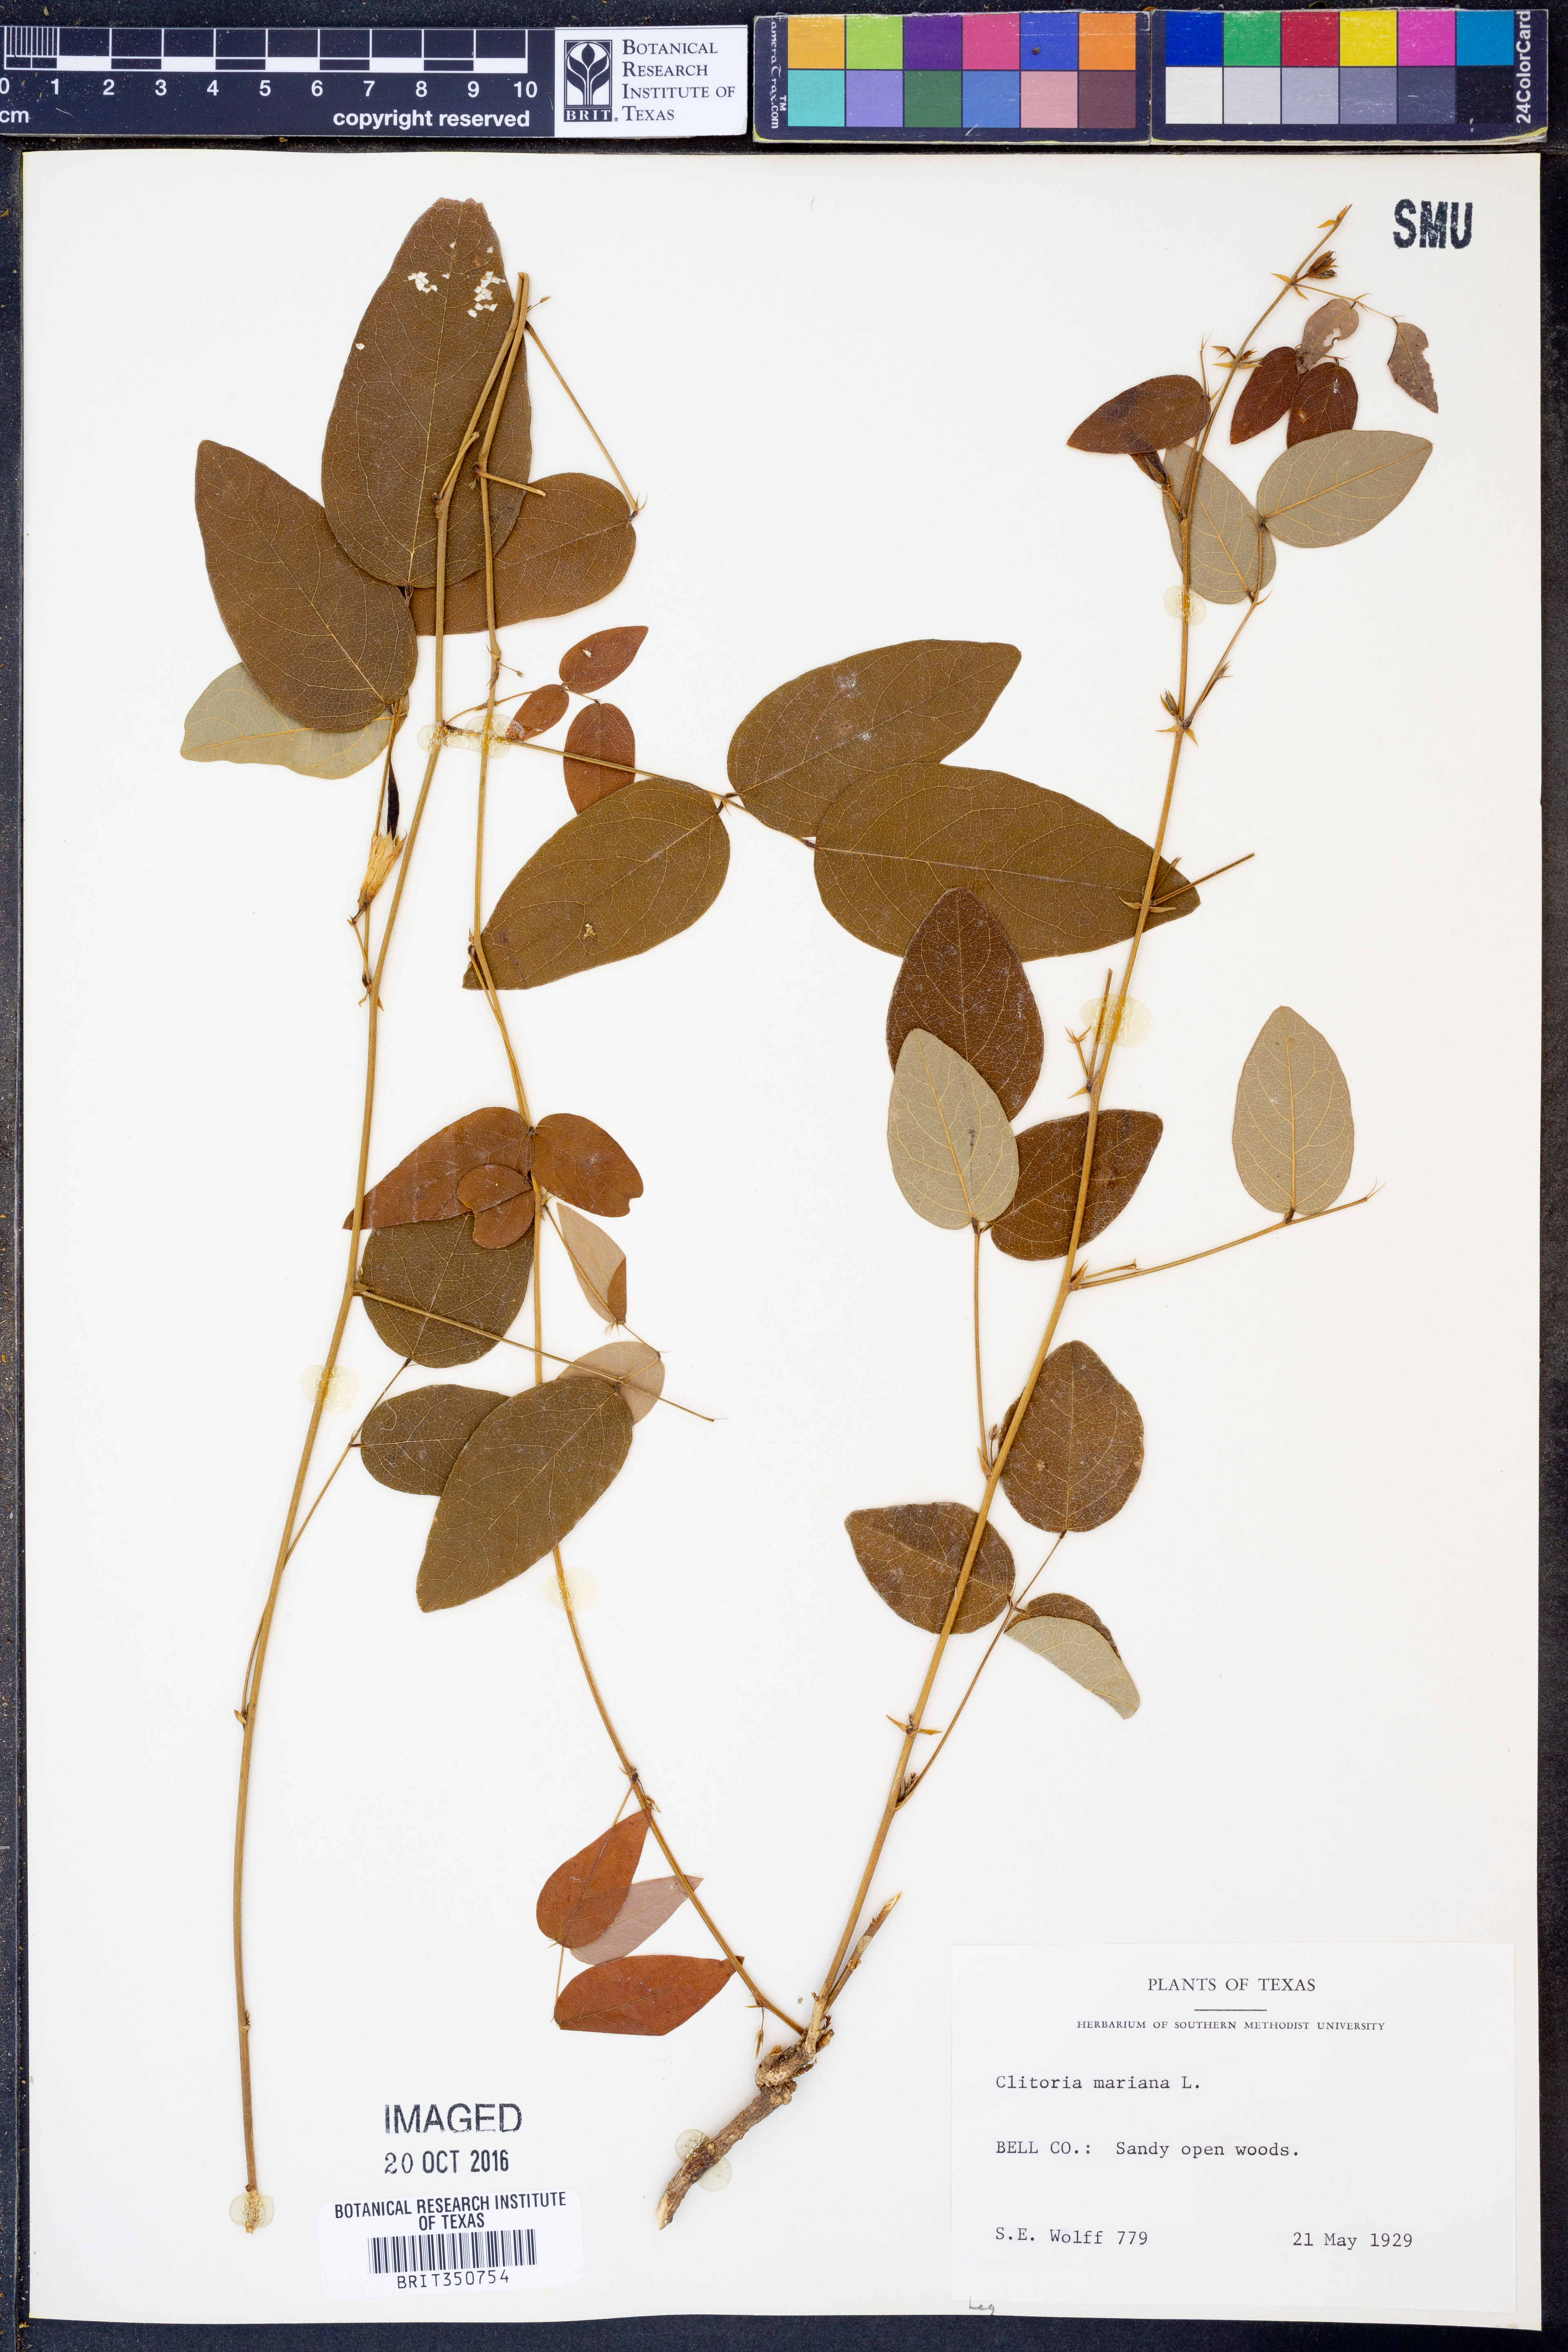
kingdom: Plantae
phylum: Tracheophyta
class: Magnoliopsida
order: Fabales
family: Fabaceae
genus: Clitoria
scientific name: Clitoria mariana
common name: Butterfly-pea
